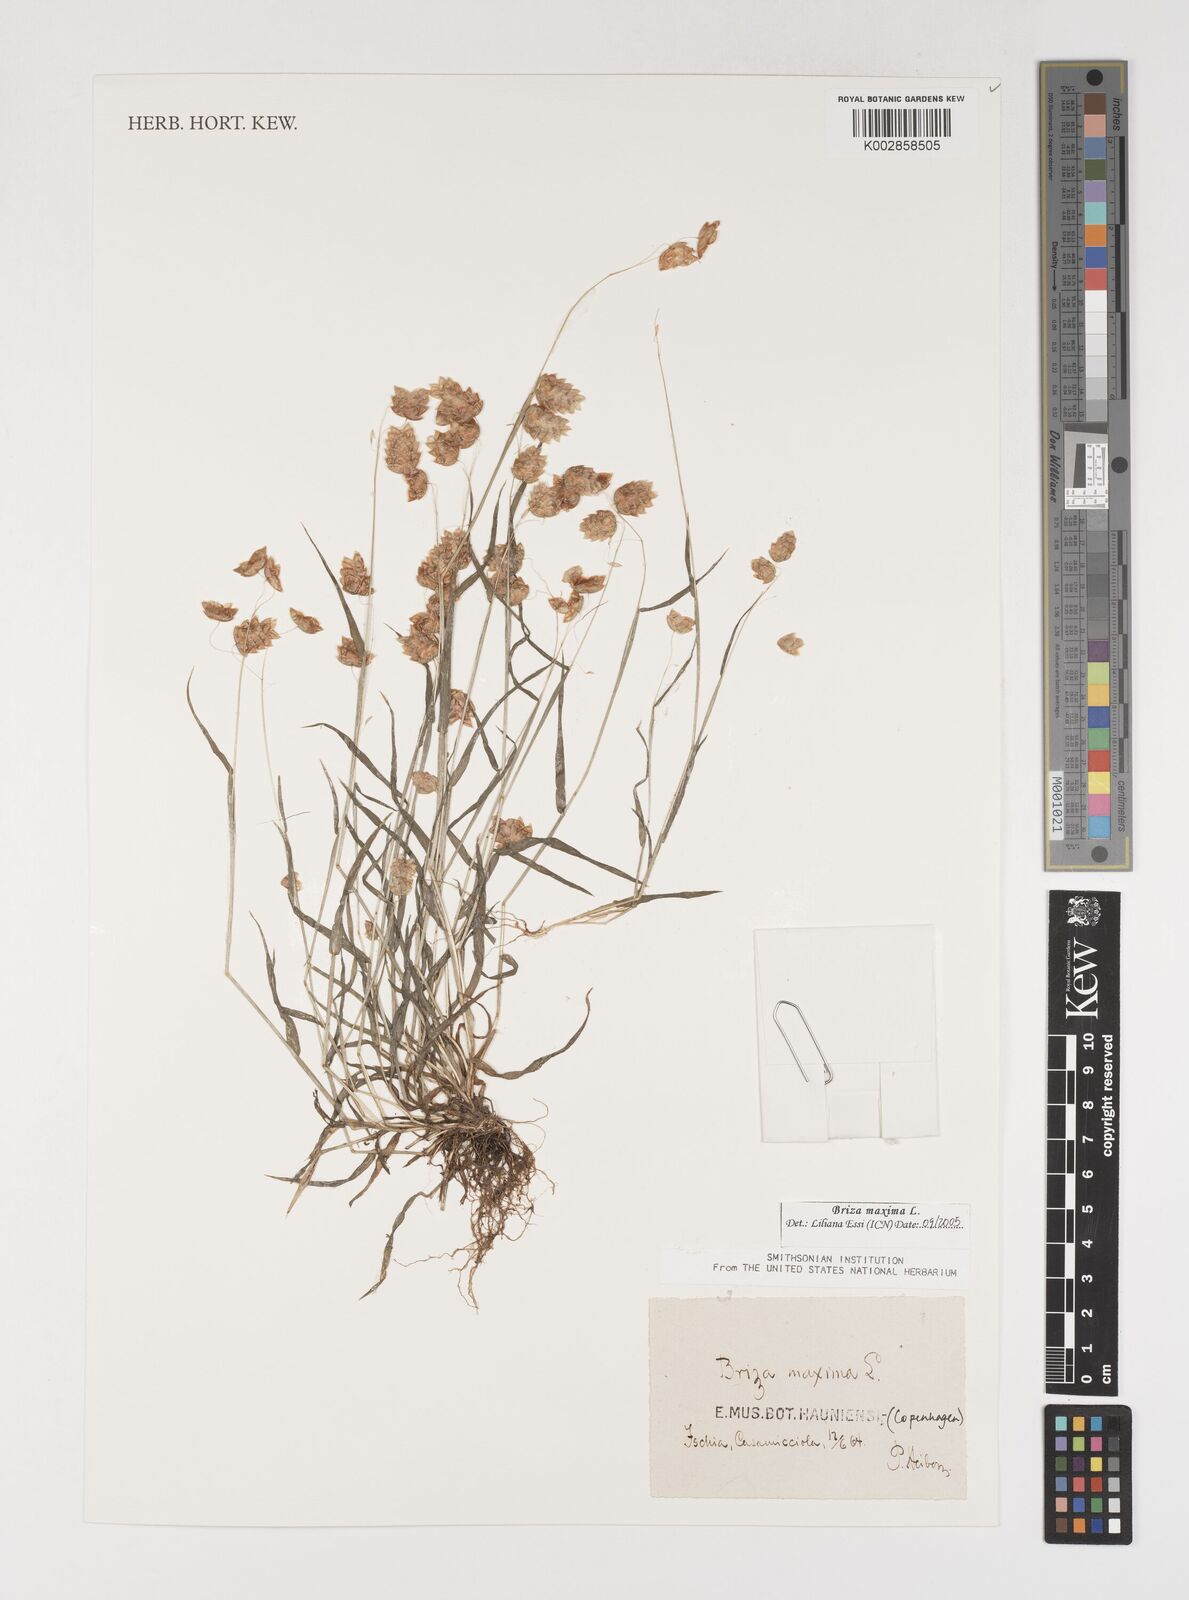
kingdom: Plantae
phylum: Tracheophyta
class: Liliopsida
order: Poales
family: Poaceae
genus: Briza
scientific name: Briza maxima
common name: Big quakinggrass
